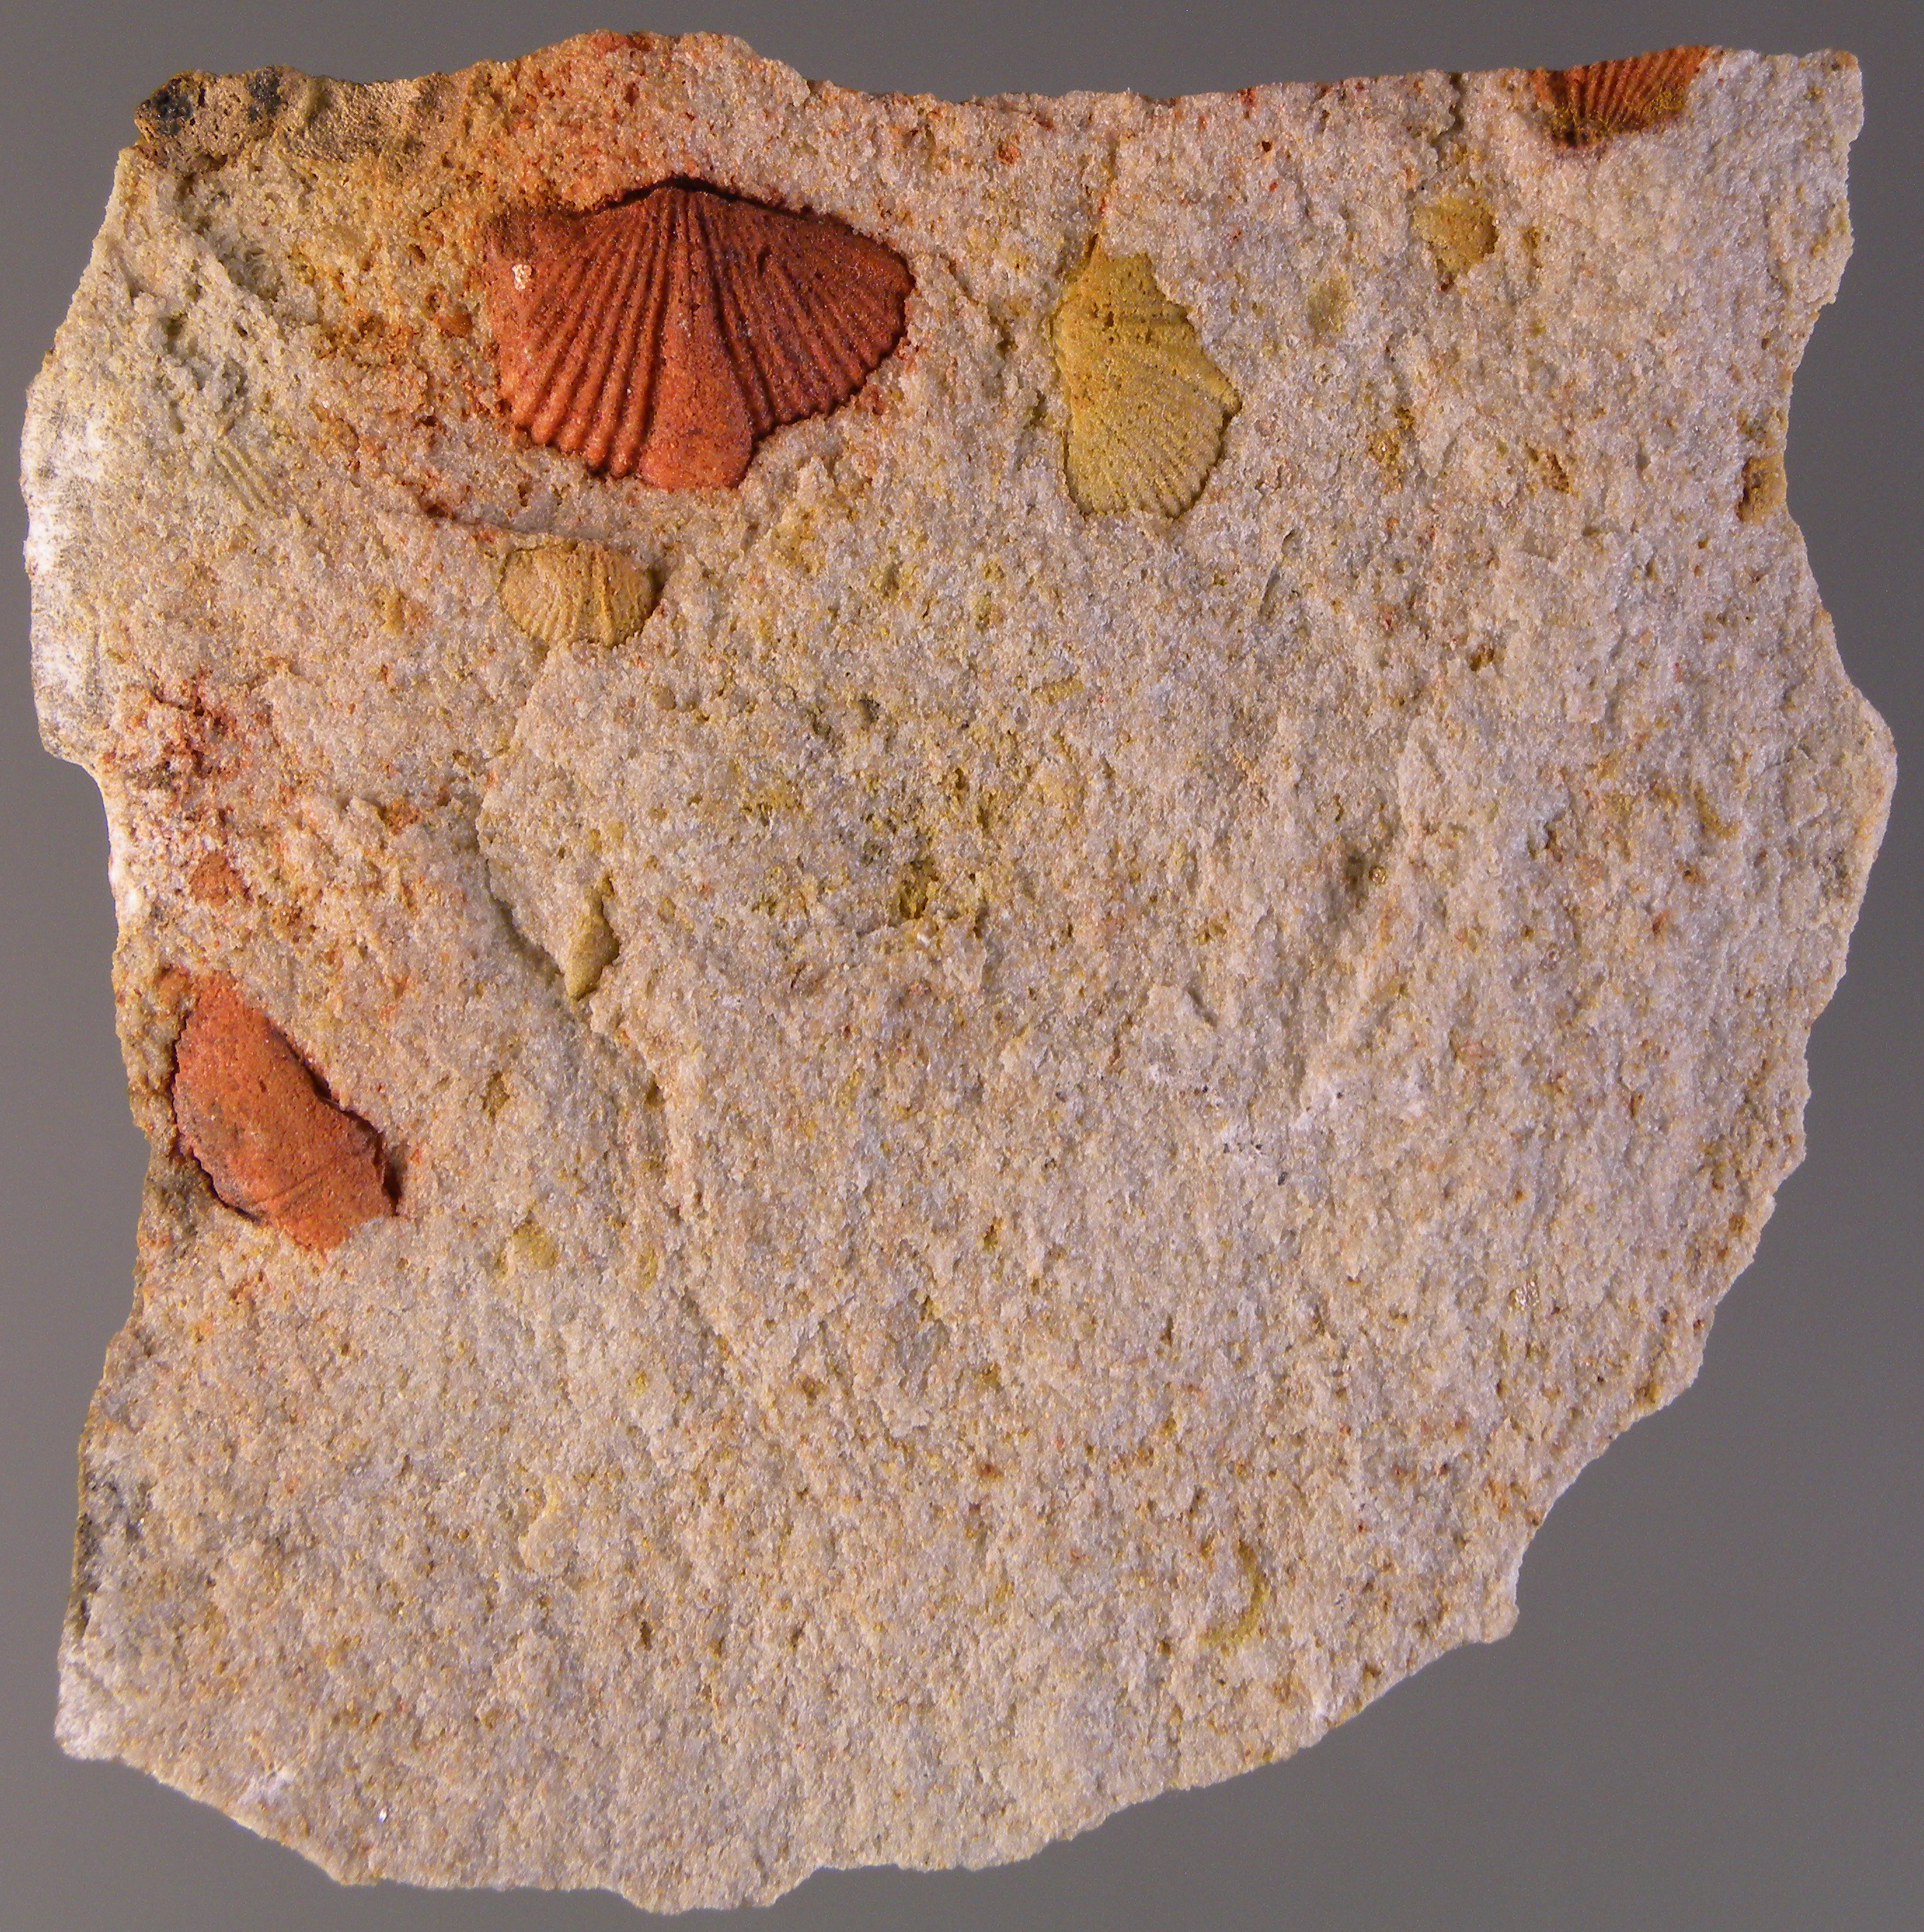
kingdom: Animalia
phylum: Brachiopoda
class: Rhynchonellata
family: Spinocyrtiidae
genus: Subcuspidella
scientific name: Subcuspidella
